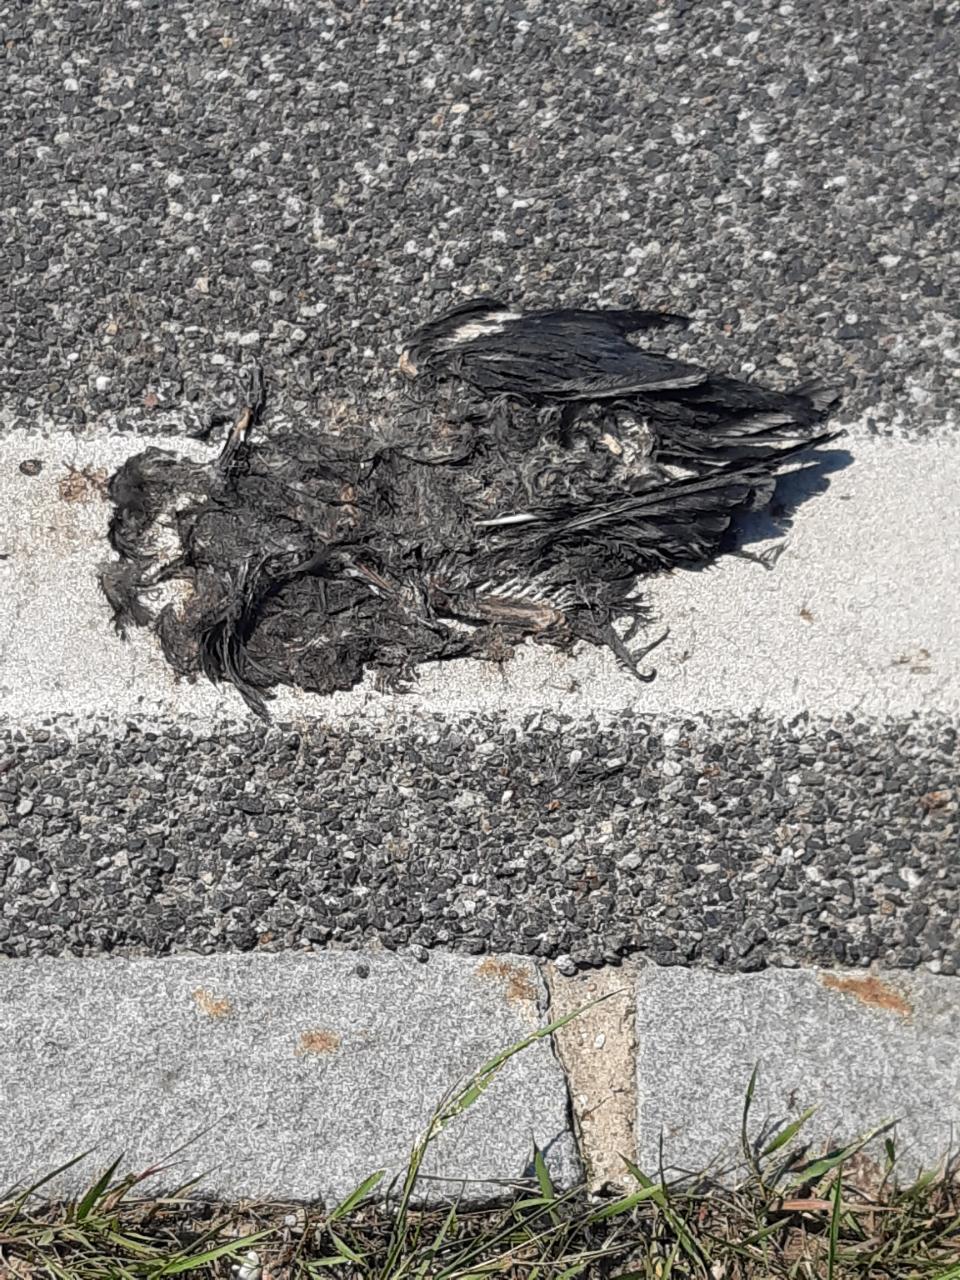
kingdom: Animalia
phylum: Chordata
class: Aves
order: Passeriformes
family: Corvidae
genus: Corvus
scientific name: Corvus
